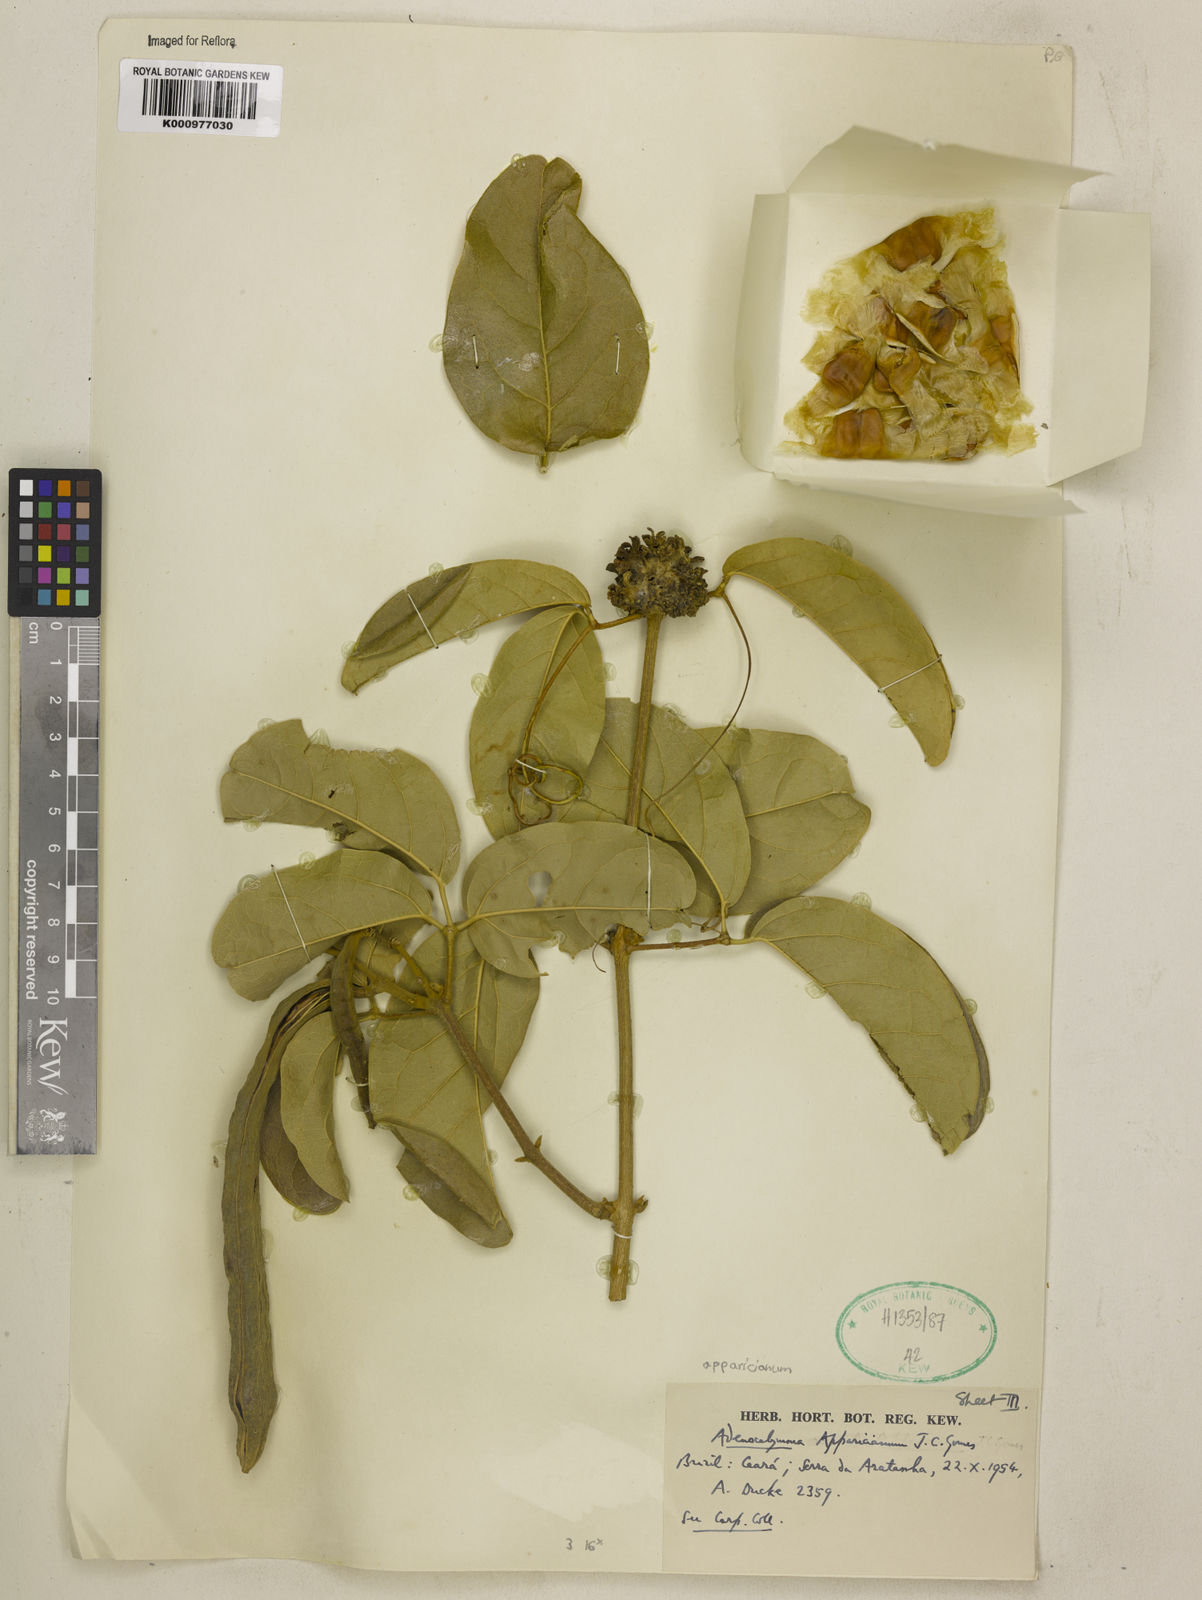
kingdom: Plantae
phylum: Tracheophyta
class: Magnoliopsida
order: Lamiales
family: Bignoniaceae
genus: Adenocalymma
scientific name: Adenocalymma apparicianum
